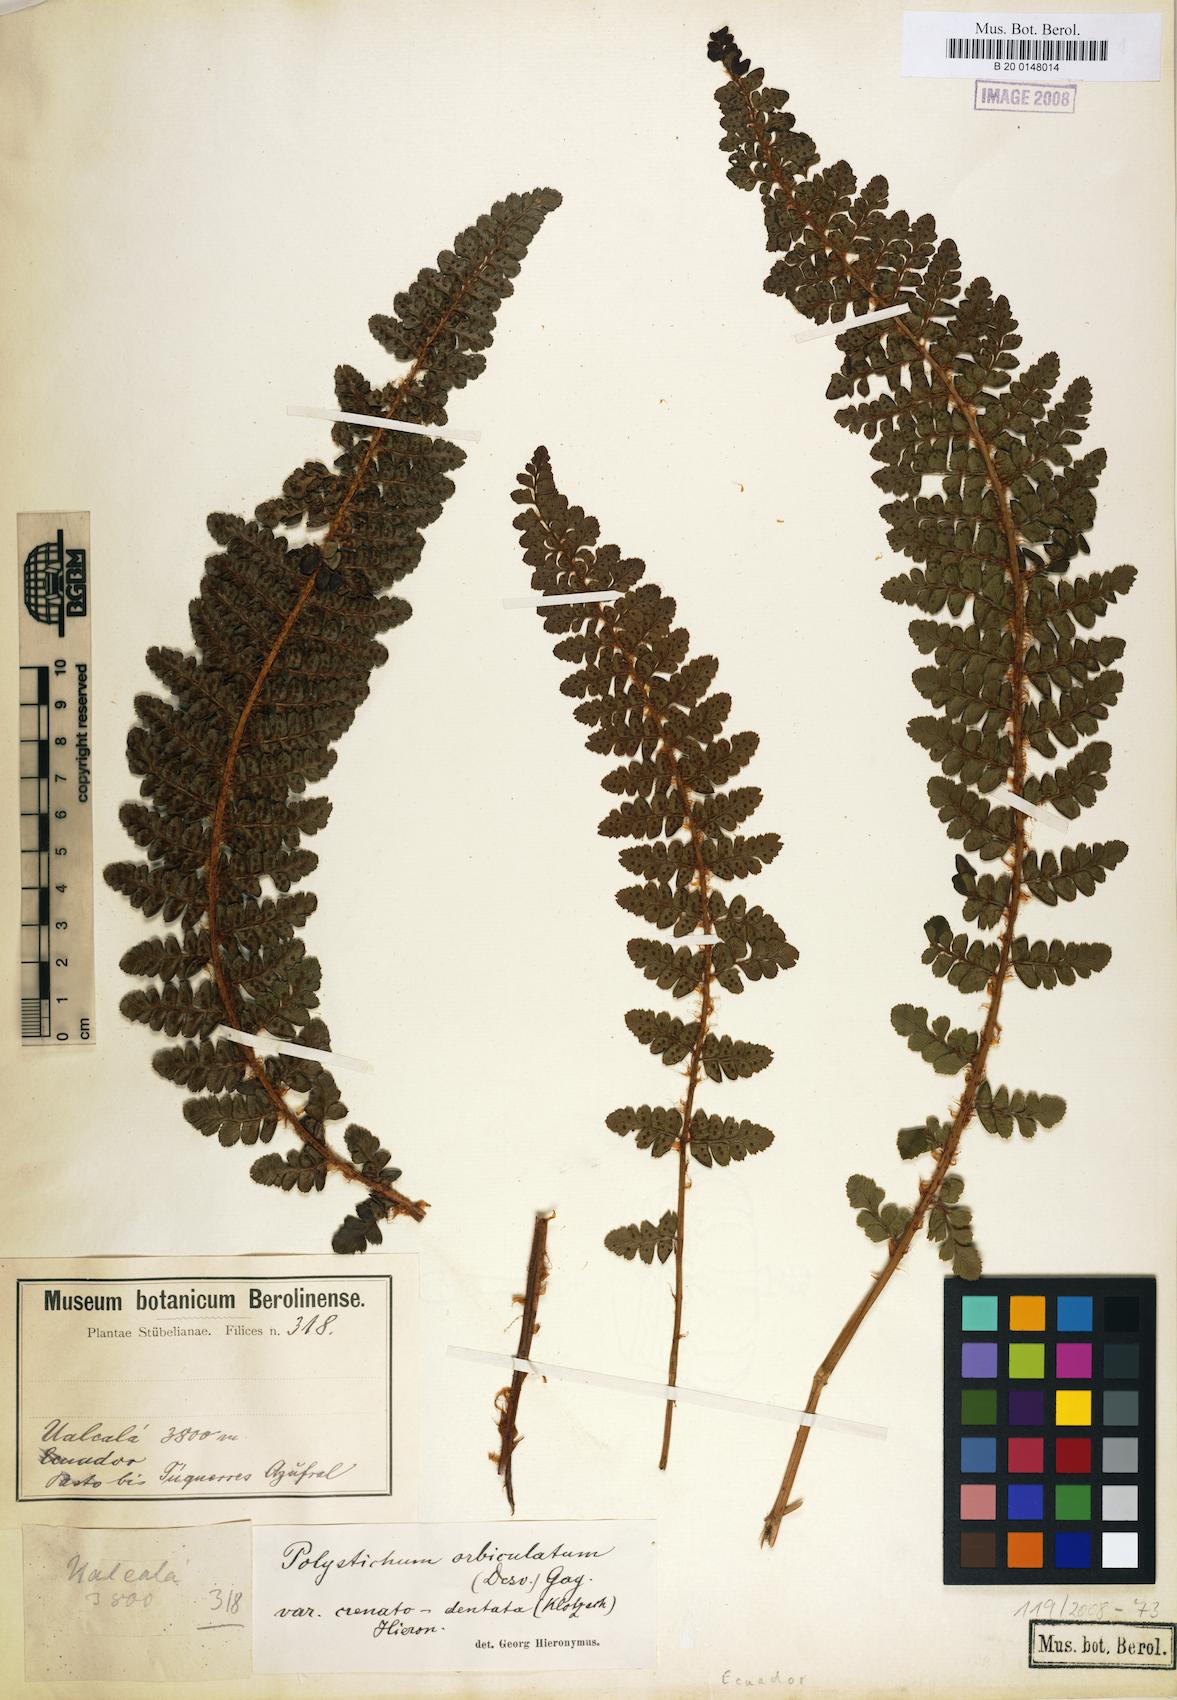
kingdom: Plantae
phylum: Tracheophyta
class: Polypodiopsida
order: Polypodiales
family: Dryopteridaceae
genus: Polystichum
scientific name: Polystichum orbiculatum
